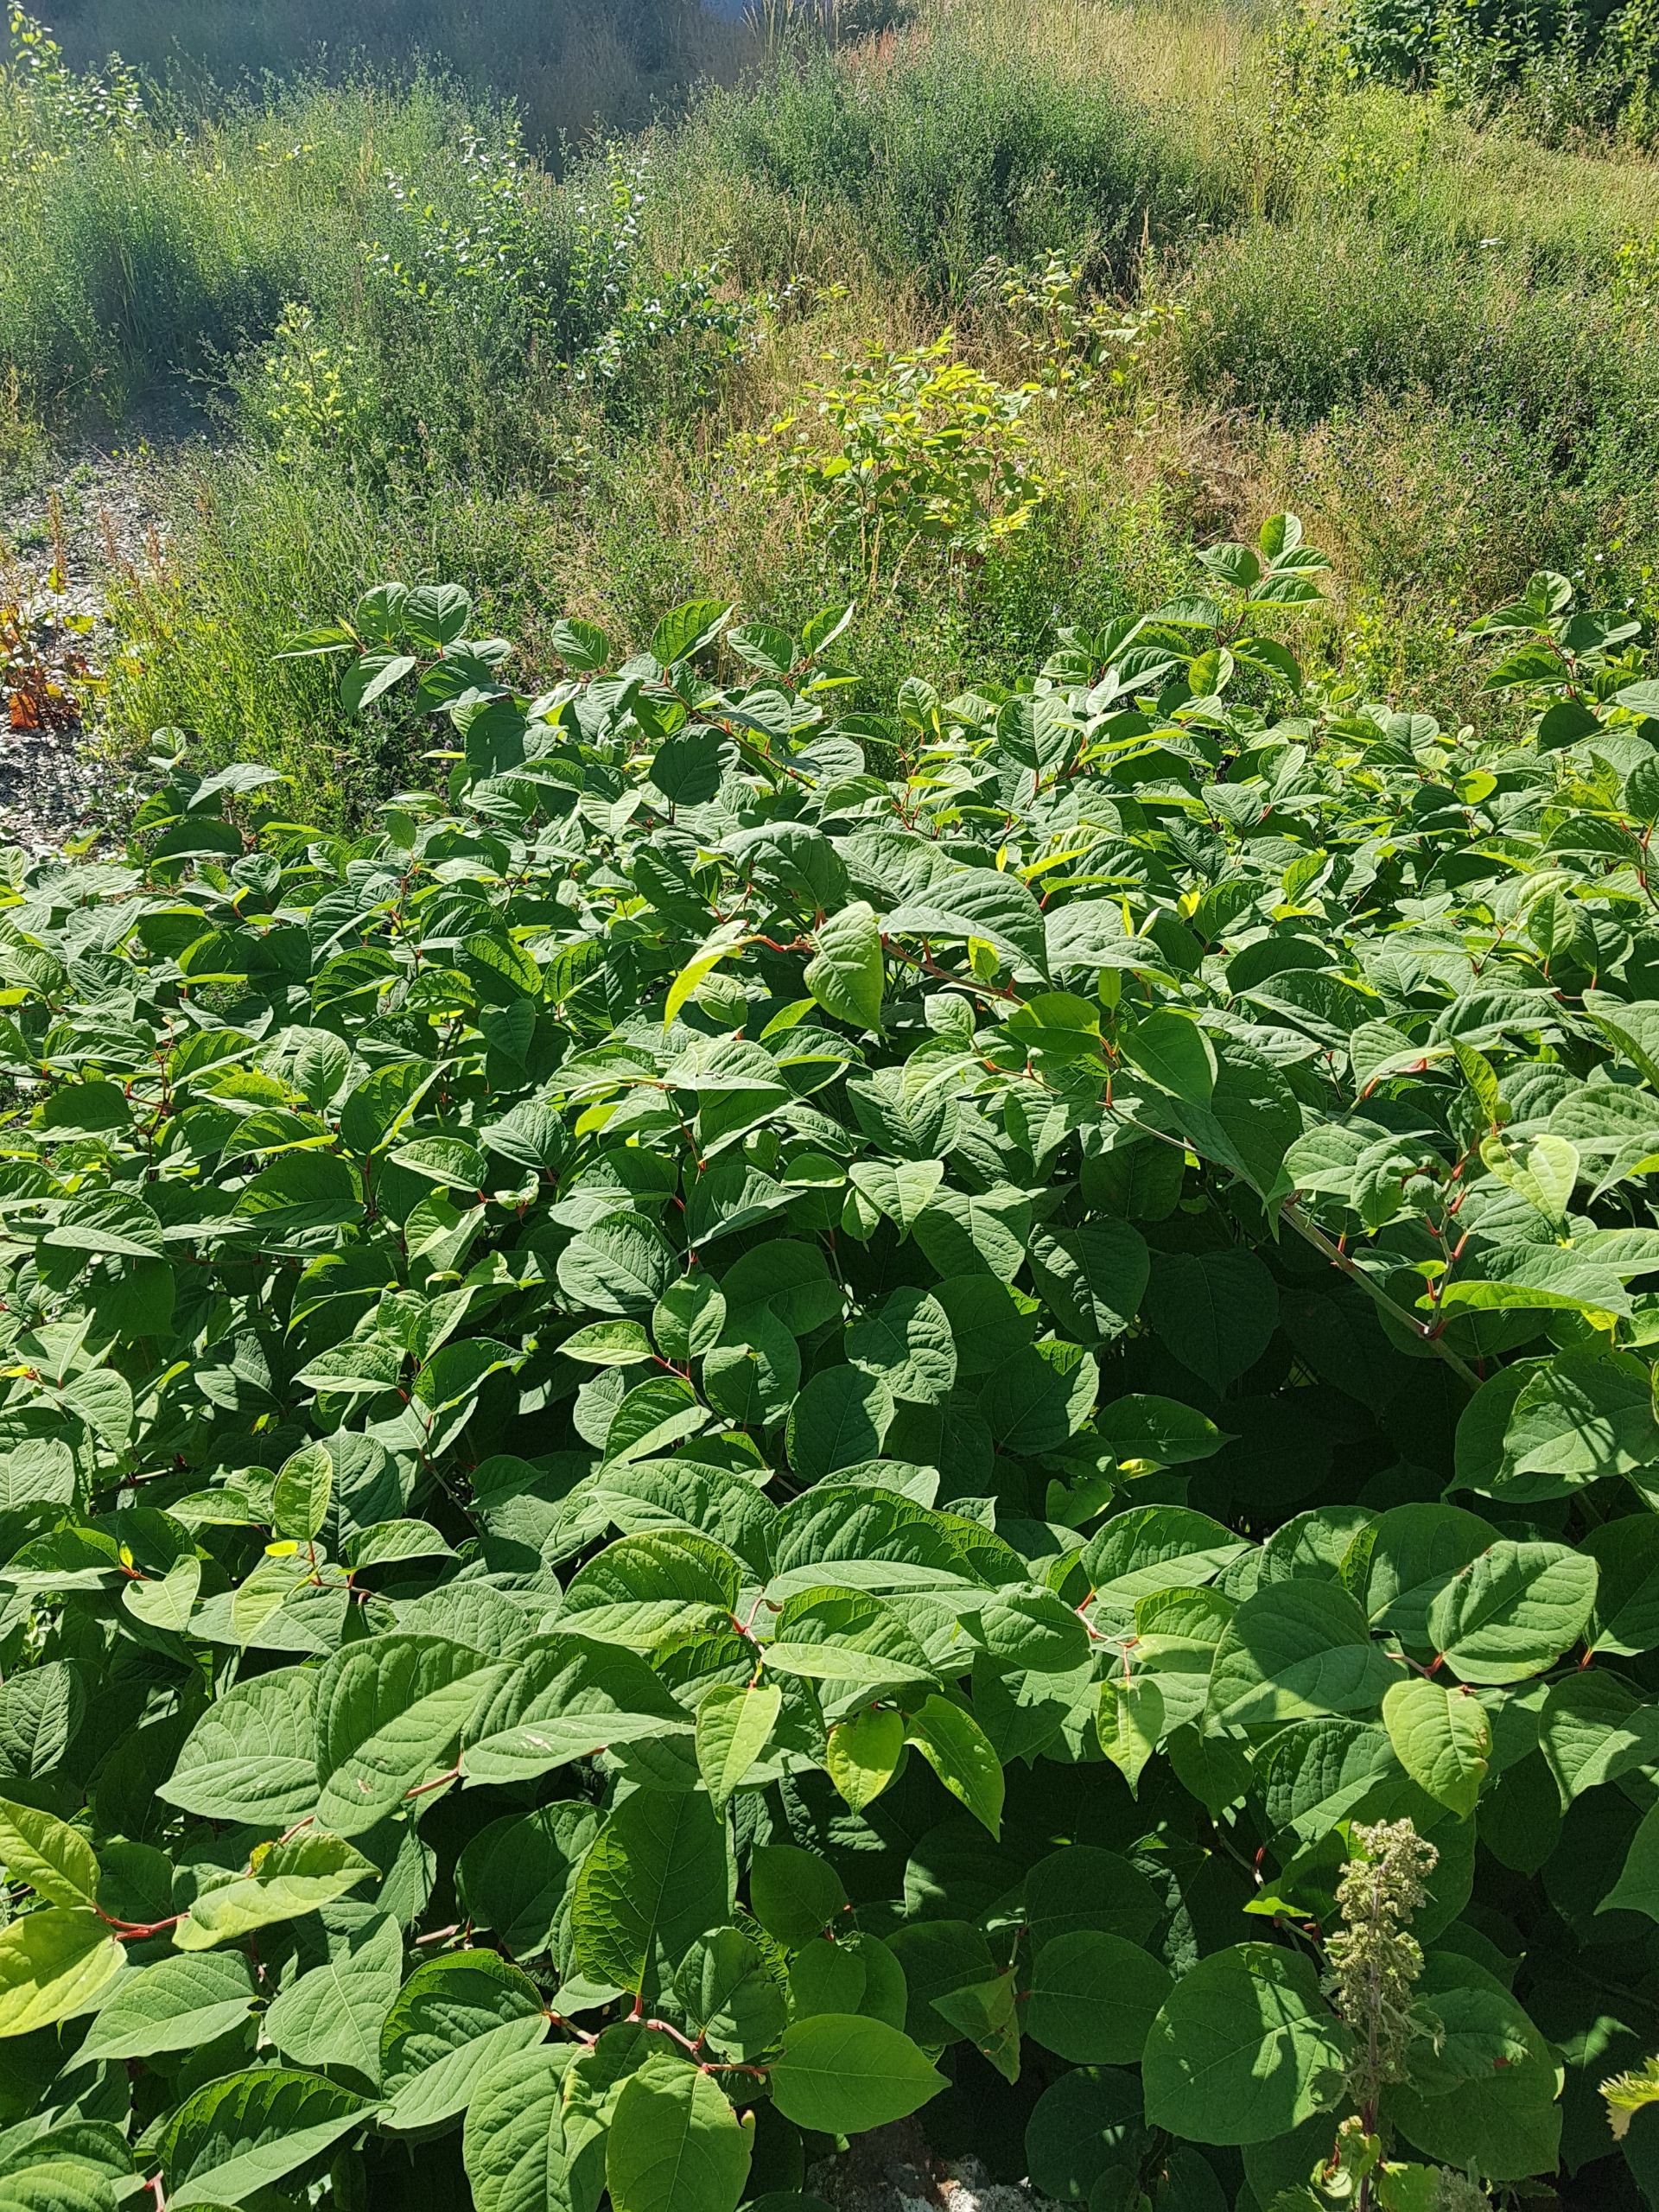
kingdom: Plantae
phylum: Tracheophyta
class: Magnoliopsida
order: Caryophyllales
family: Polygonaceae
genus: Reynoutria
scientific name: Reynoutria japonica
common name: Japan-pileurt
